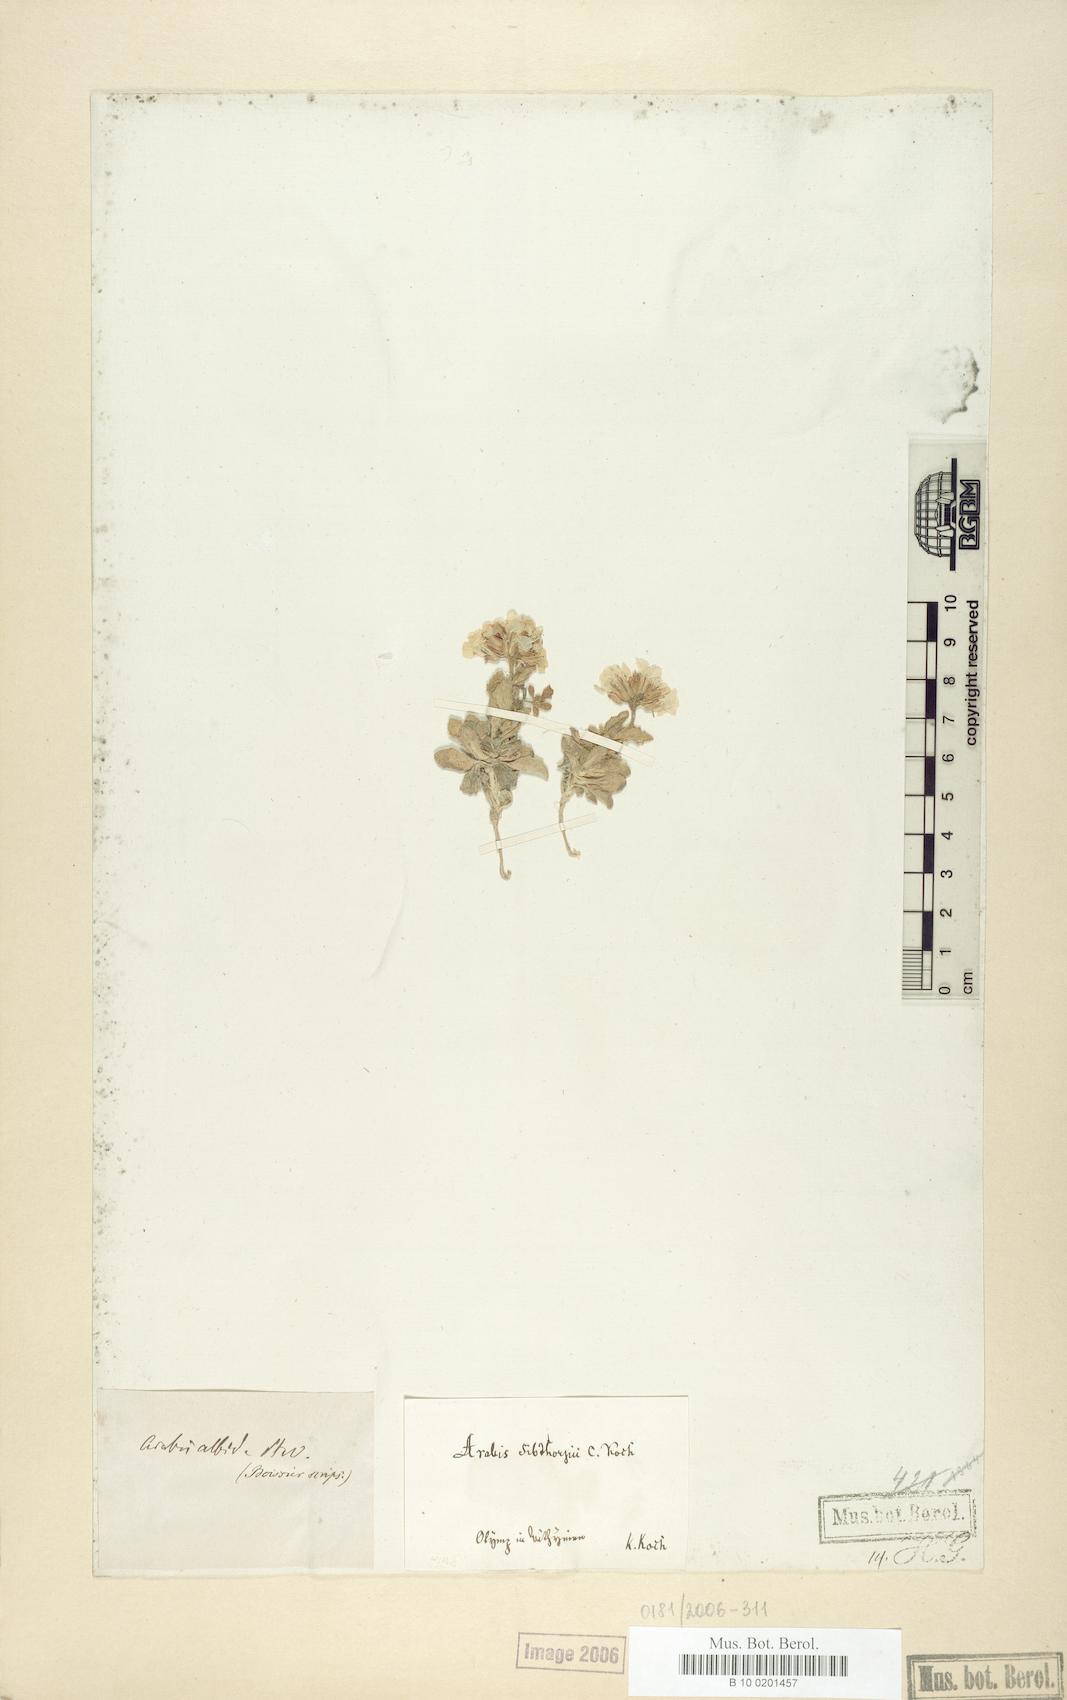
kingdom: Plantae
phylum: Tracheophyta
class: Magnoliopsida
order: Brassicales
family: Brassicaceae
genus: Arabis
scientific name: Arabis alpina
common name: Alpine rock-cress
